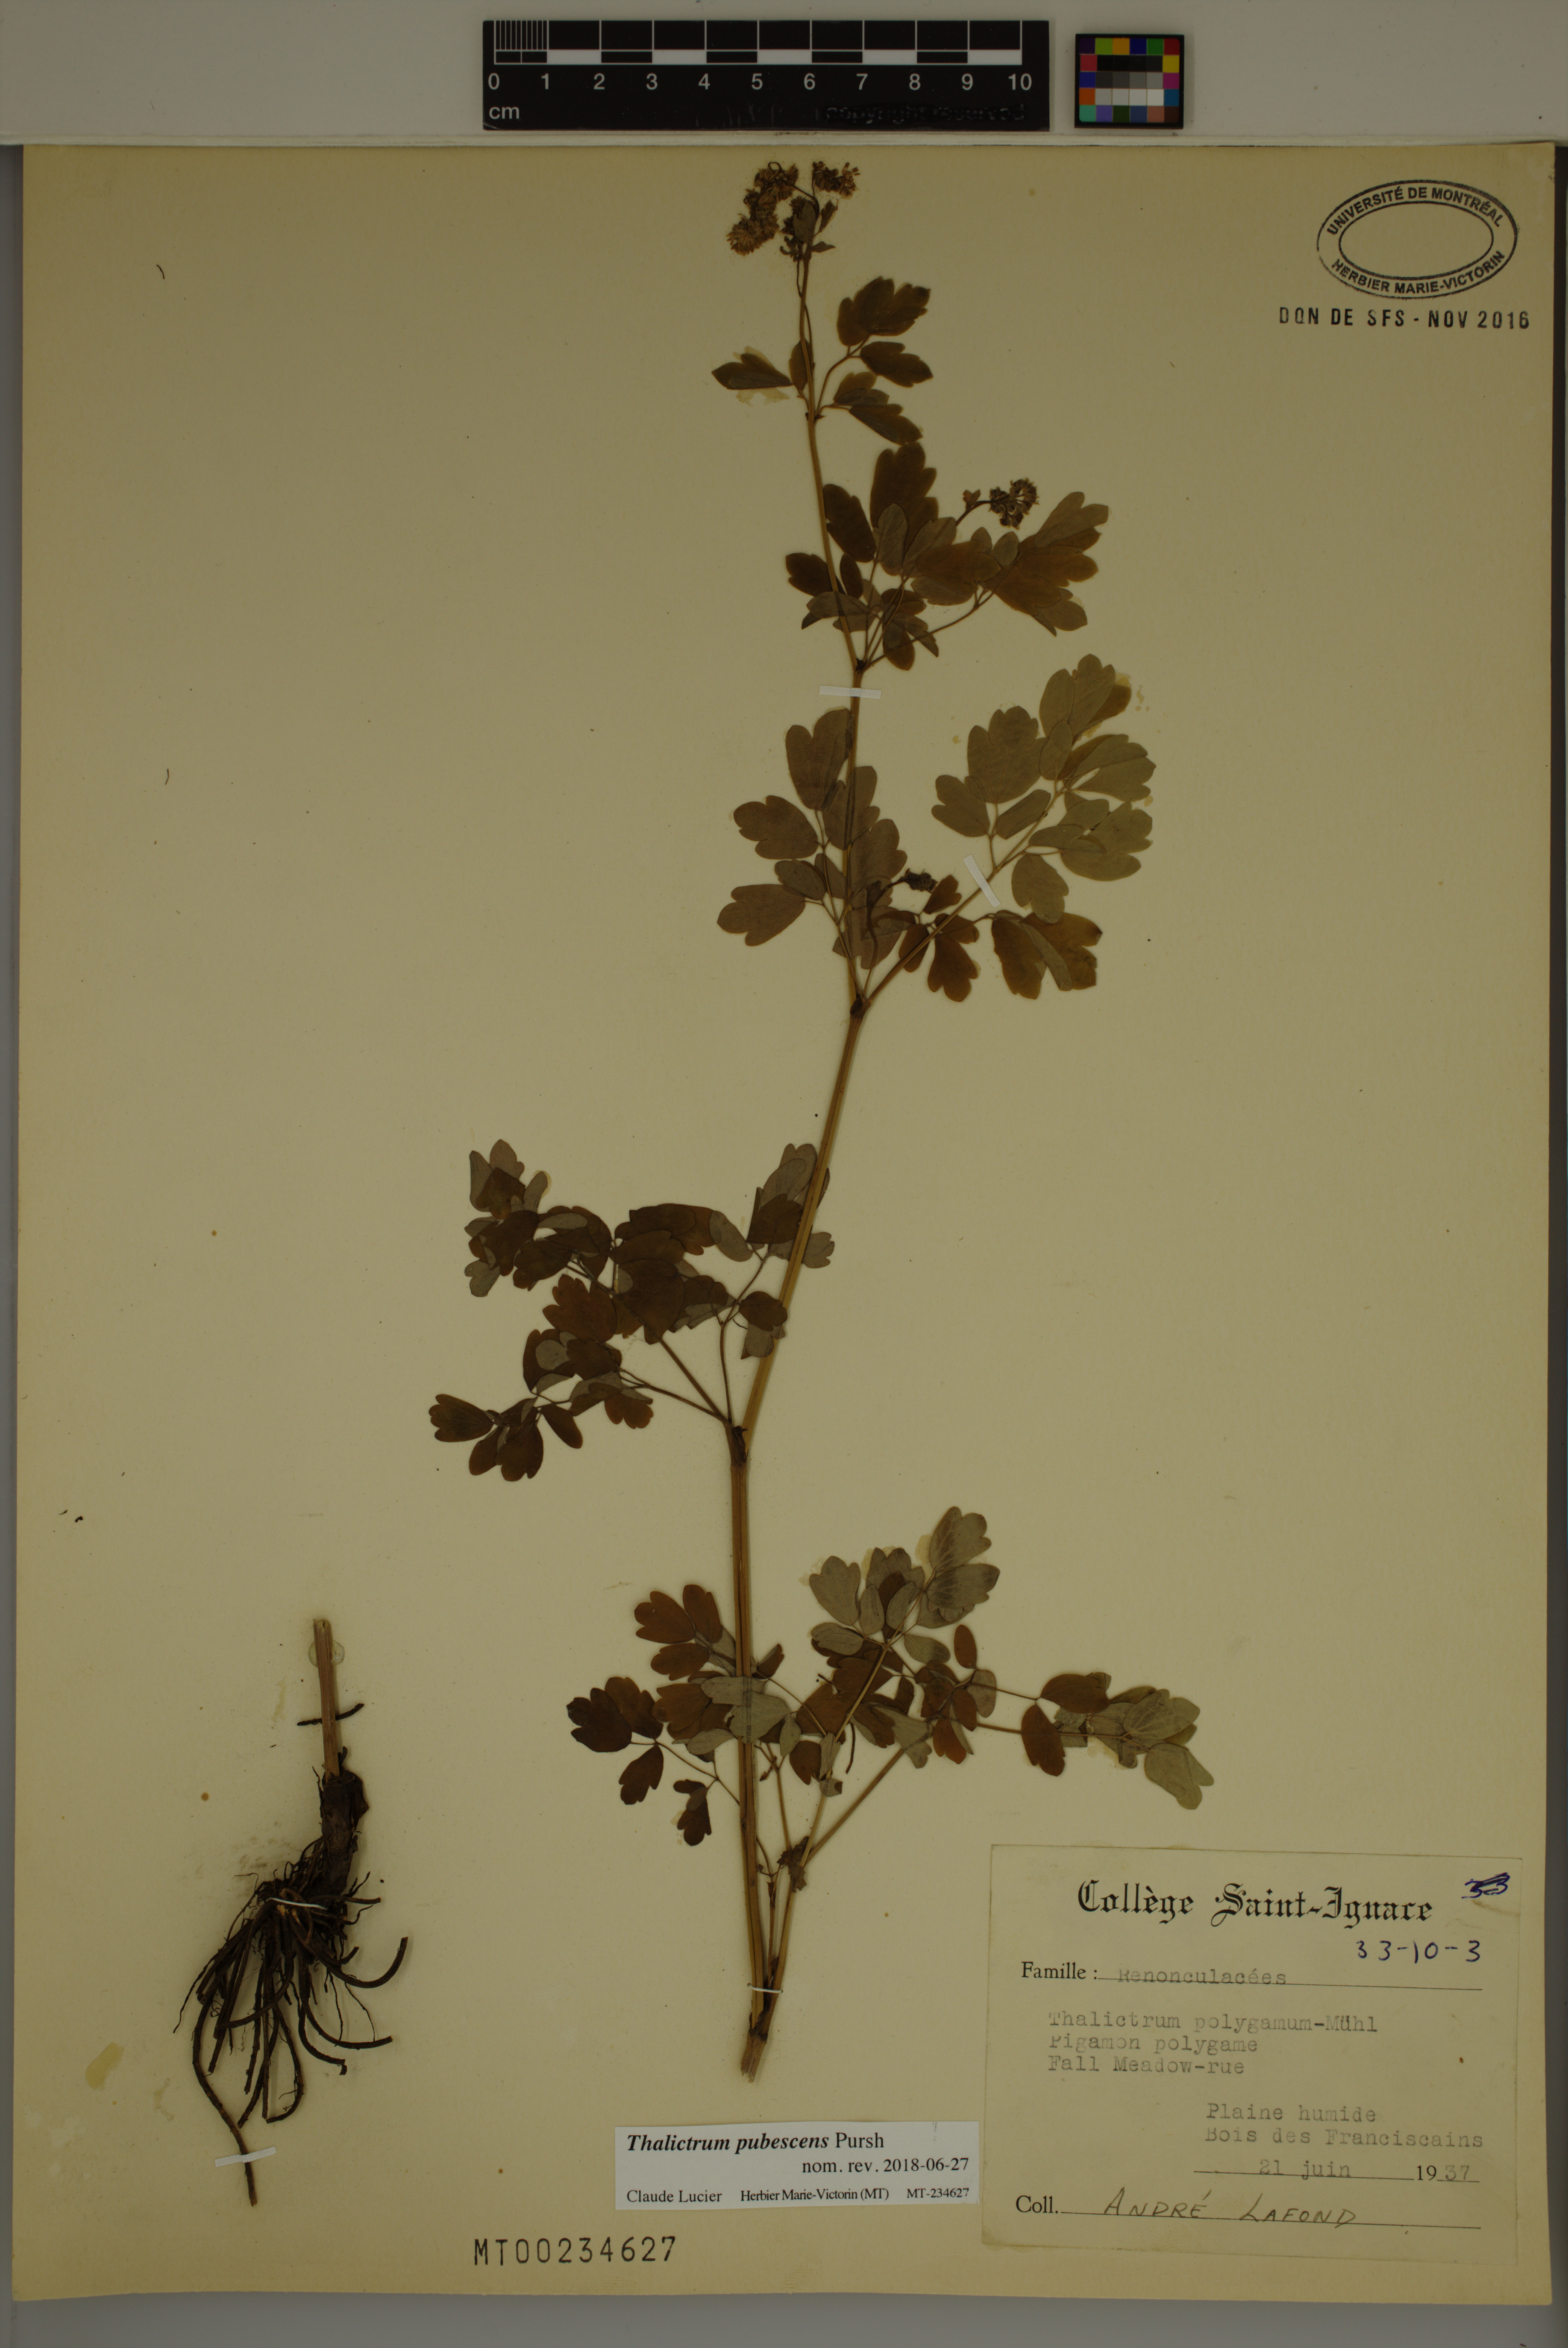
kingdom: Plantae
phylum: Tracheophyta
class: Magnoliopsida
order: Ranunculales
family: Ranunculaceae
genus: Thalictrum
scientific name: Thalictrum pubescens
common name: King-of-the-meadow
